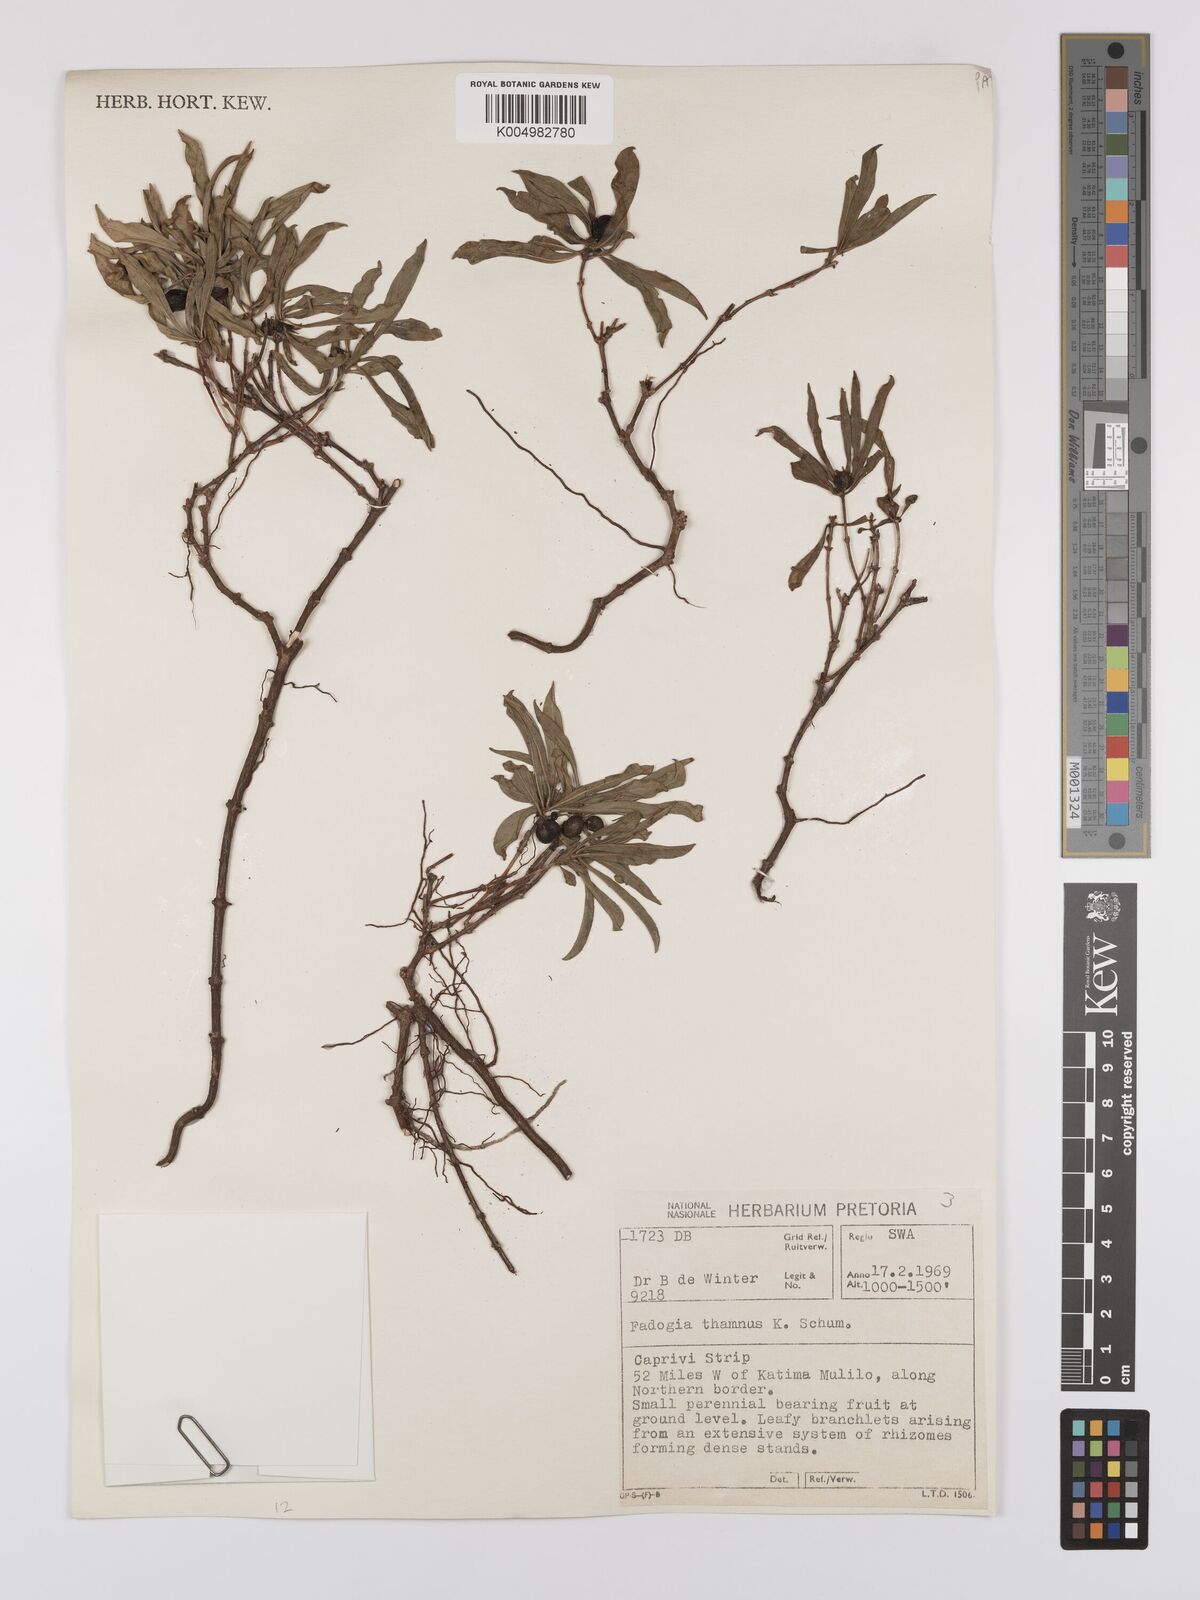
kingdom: Plantae
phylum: Tracheophyta
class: Magnoliopsida
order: Gentianales
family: Rubiaceae
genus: Fadogia
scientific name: Fadogia
